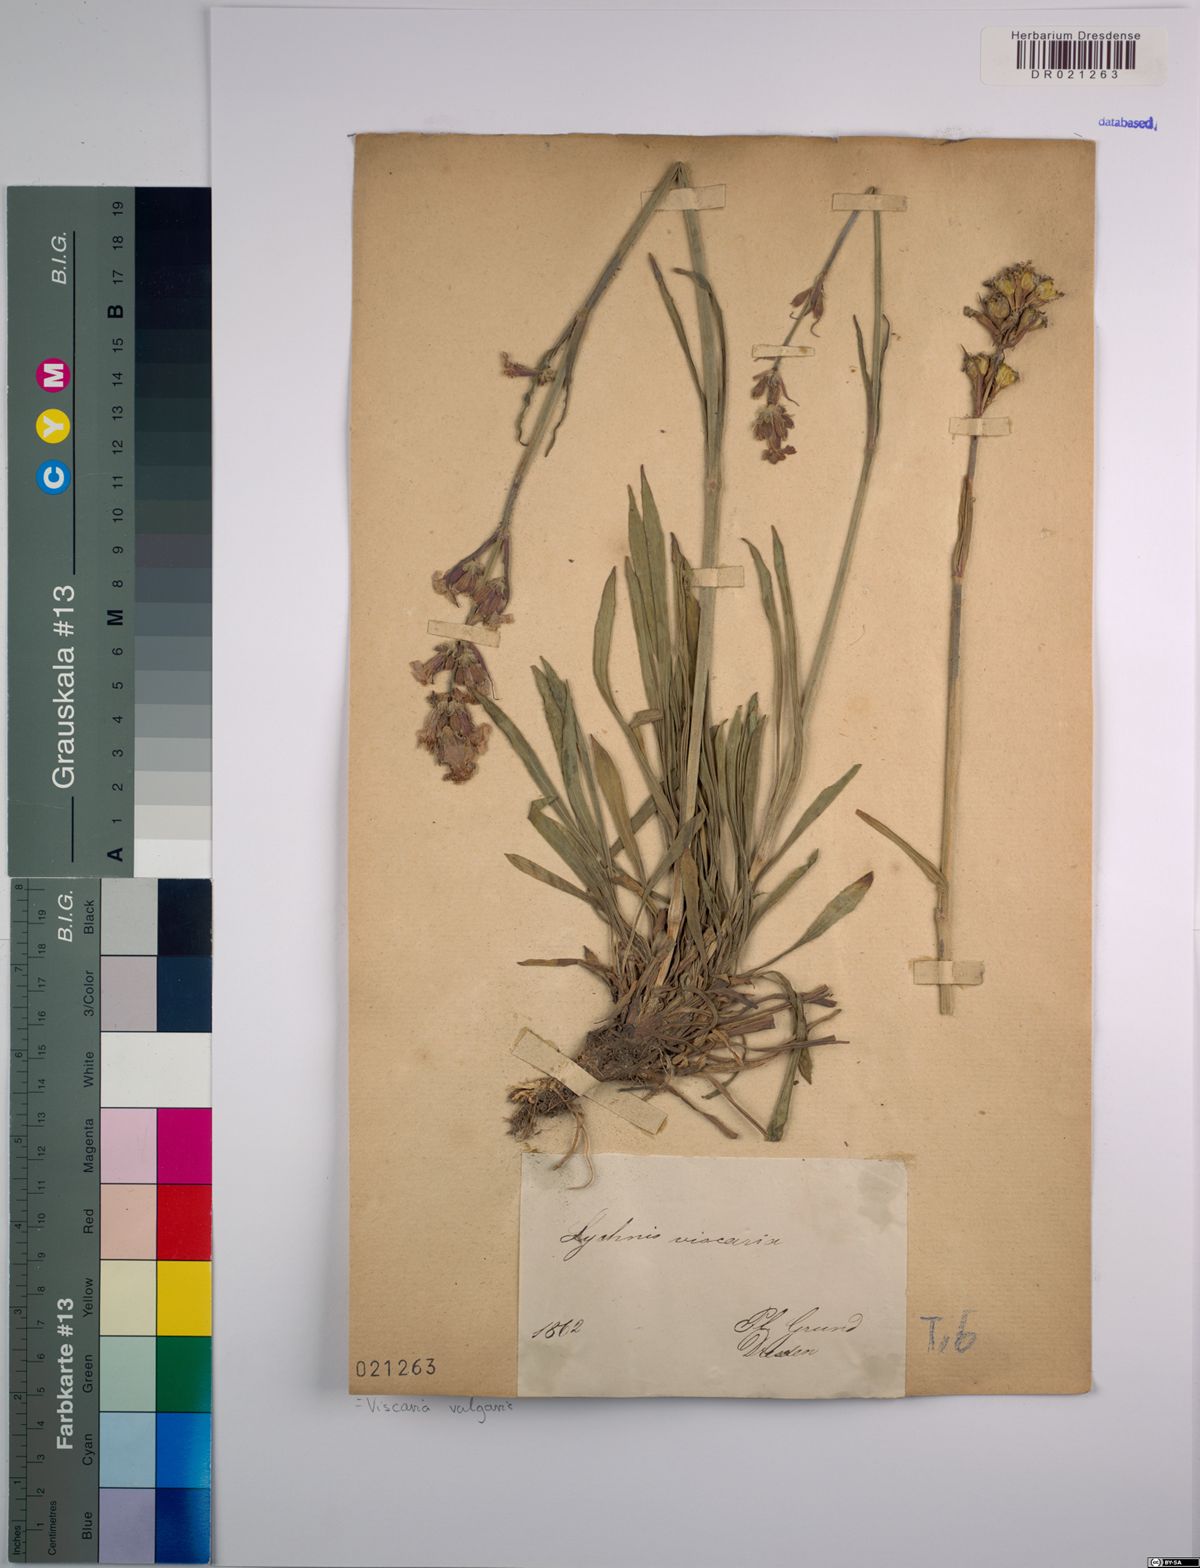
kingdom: Plantae
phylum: Tracheophyta
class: Magnoliopsida
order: Caryophyllales
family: Caryophyllaceae
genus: Viscaria
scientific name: Viscaria vulgaris
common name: Clammy campion
